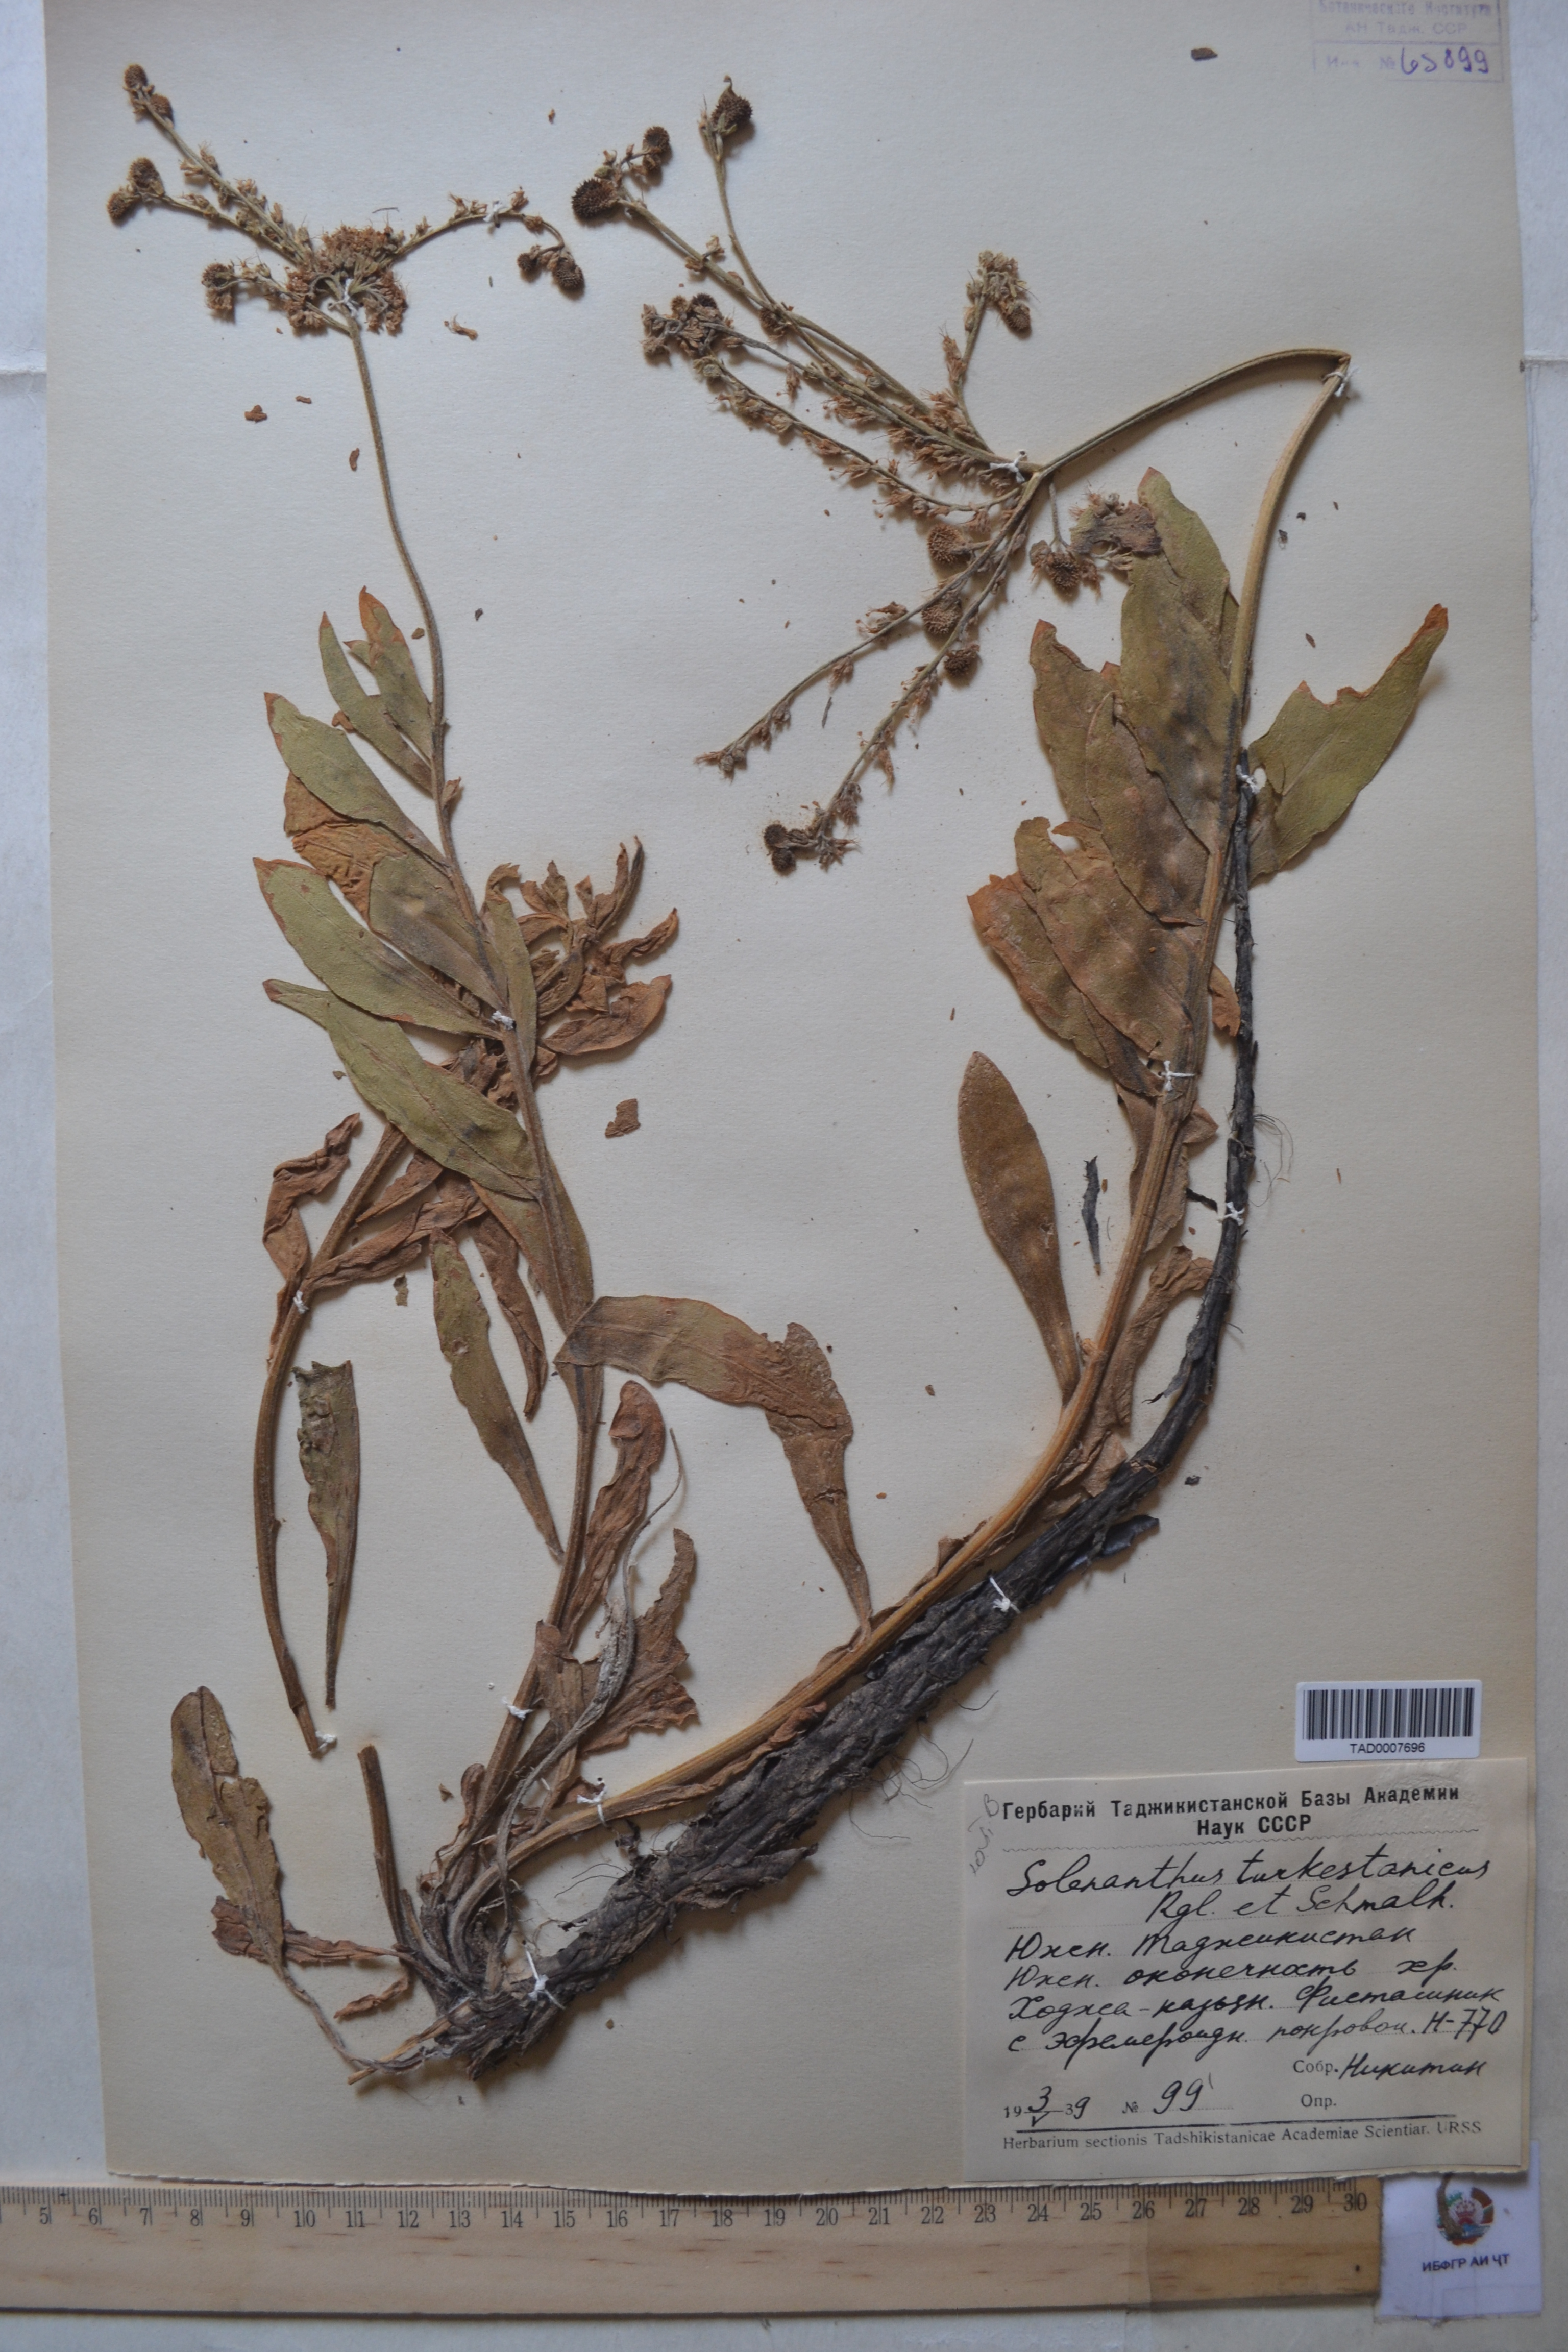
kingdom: Plantae
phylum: Tracheophyta
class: Magnoliopsida
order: Boraginales
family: Boraginaceae
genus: Solenanthus
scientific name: Solenanthus turkestanicus
